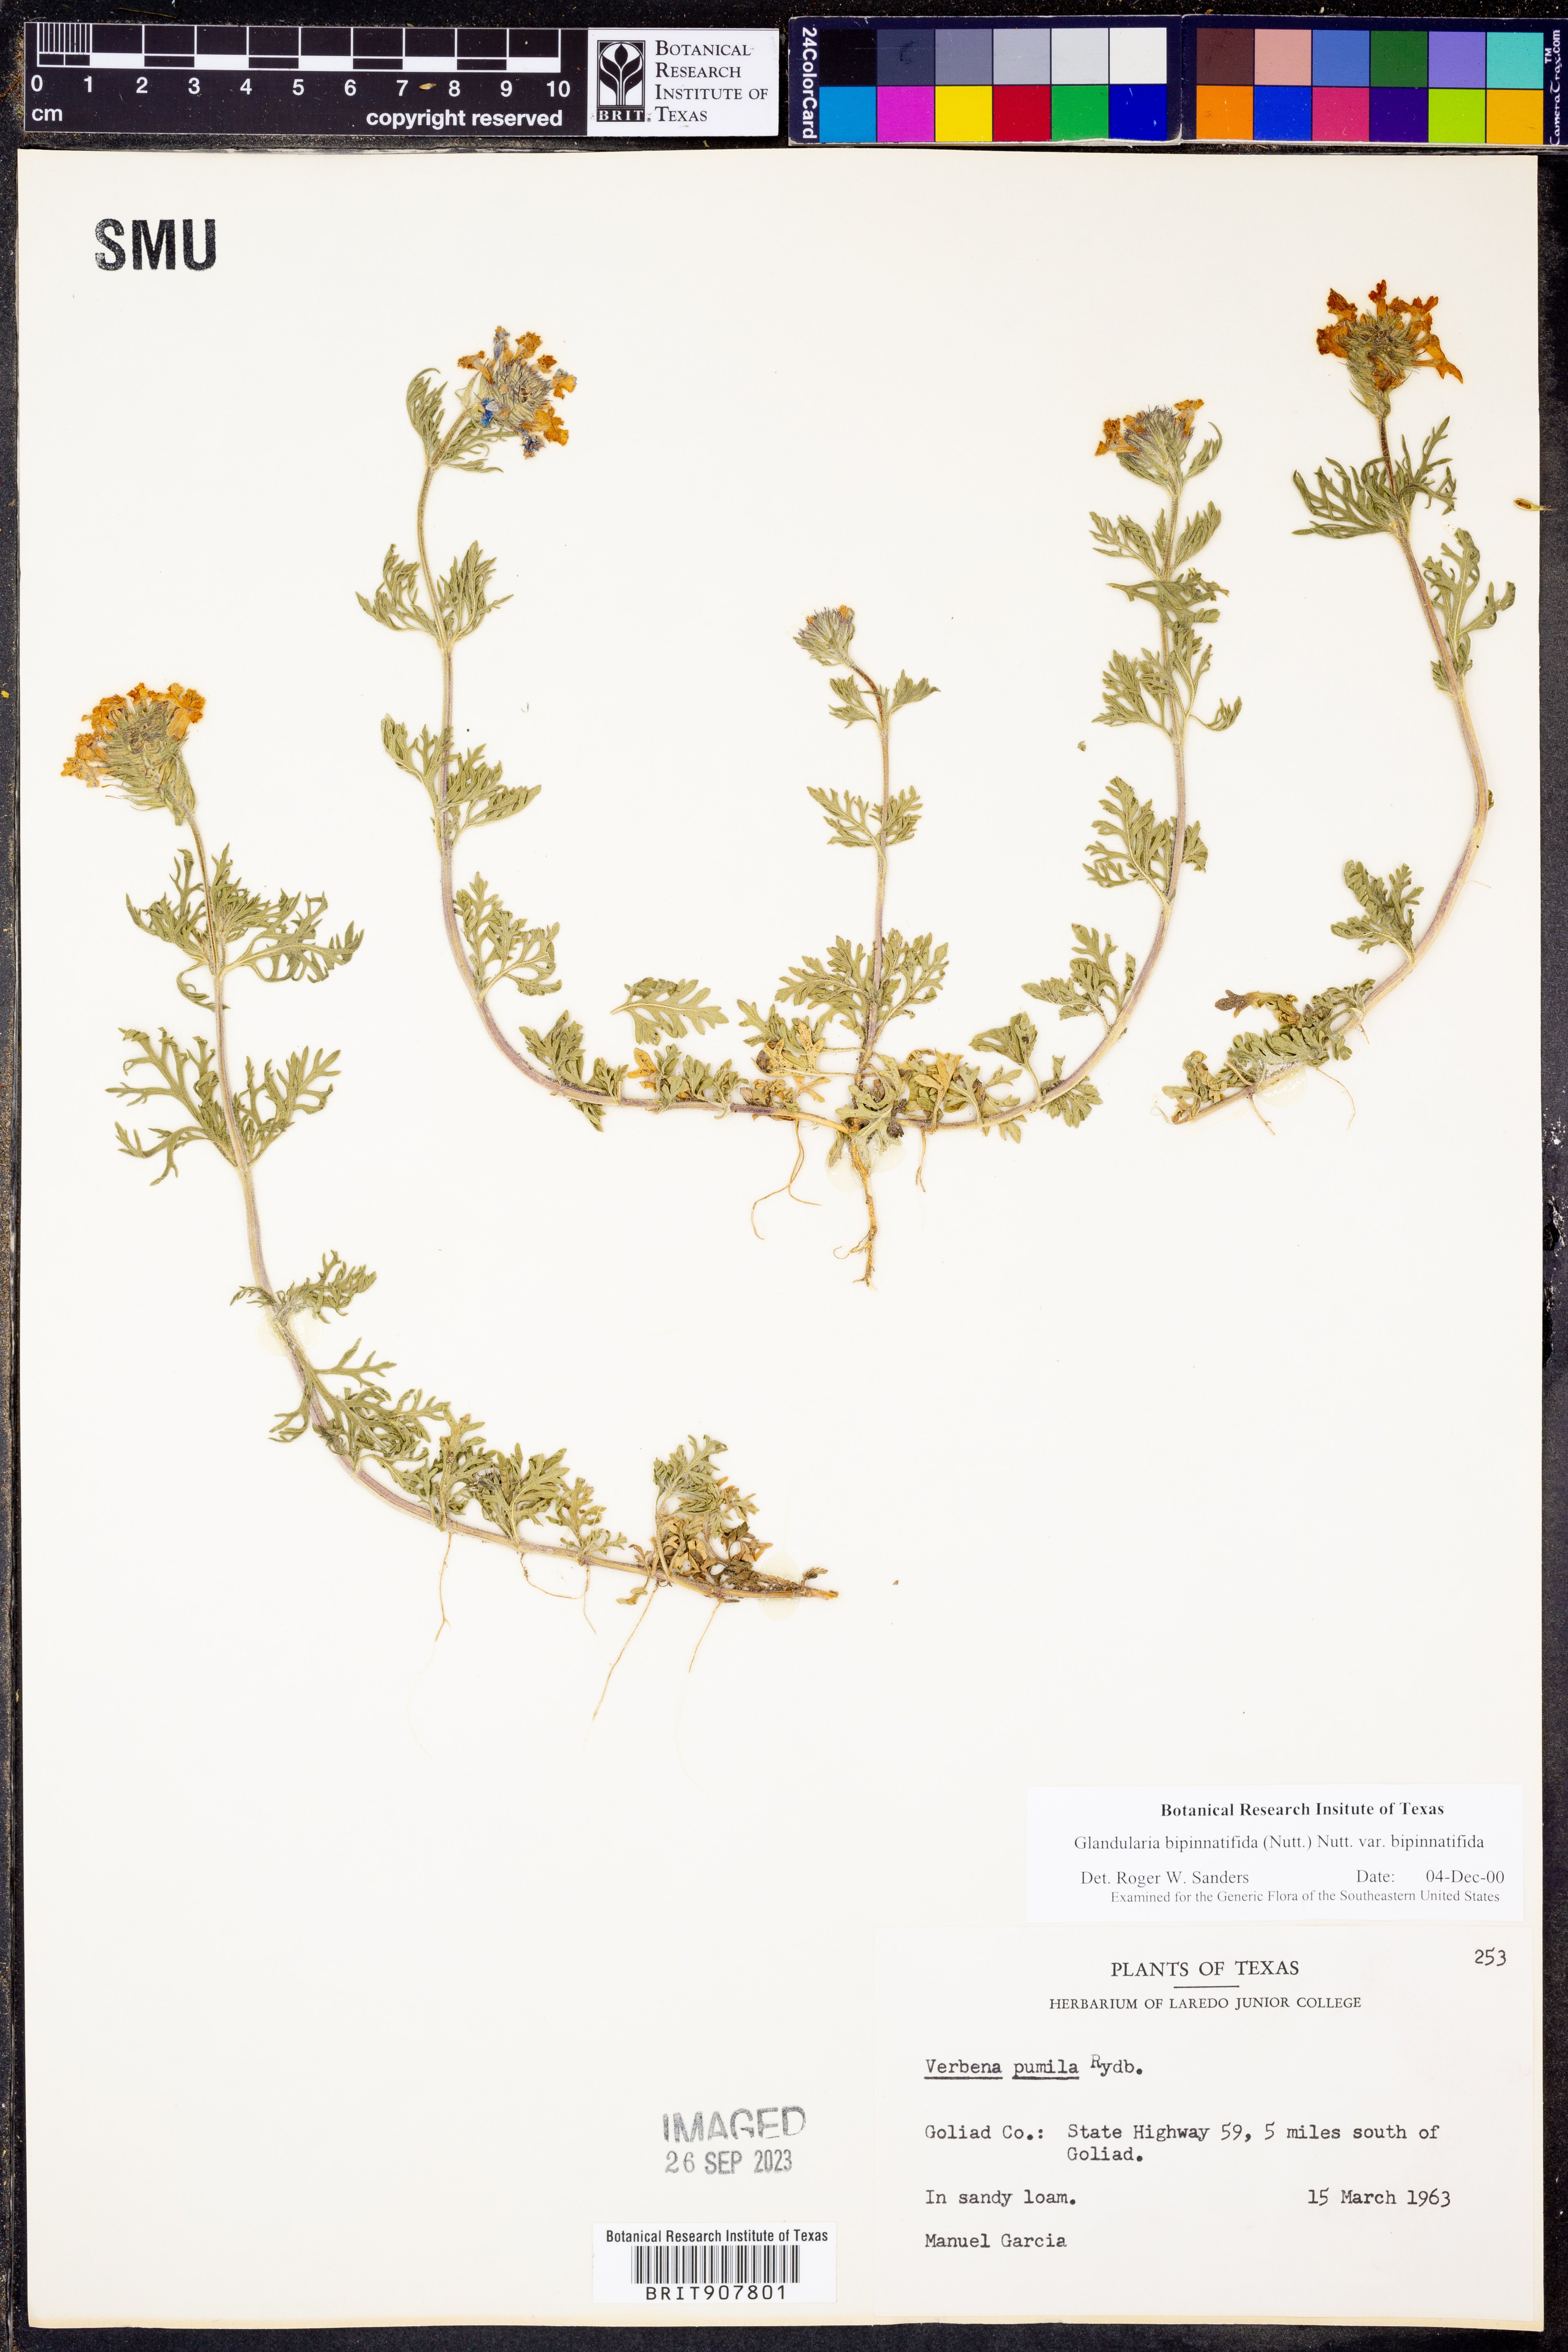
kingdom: Plantae
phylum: Tracheophyta
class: Magnoliopsida
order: Lamiales
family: Verbenaceae
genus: Verbena
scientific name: Verbena bipinnatifida
